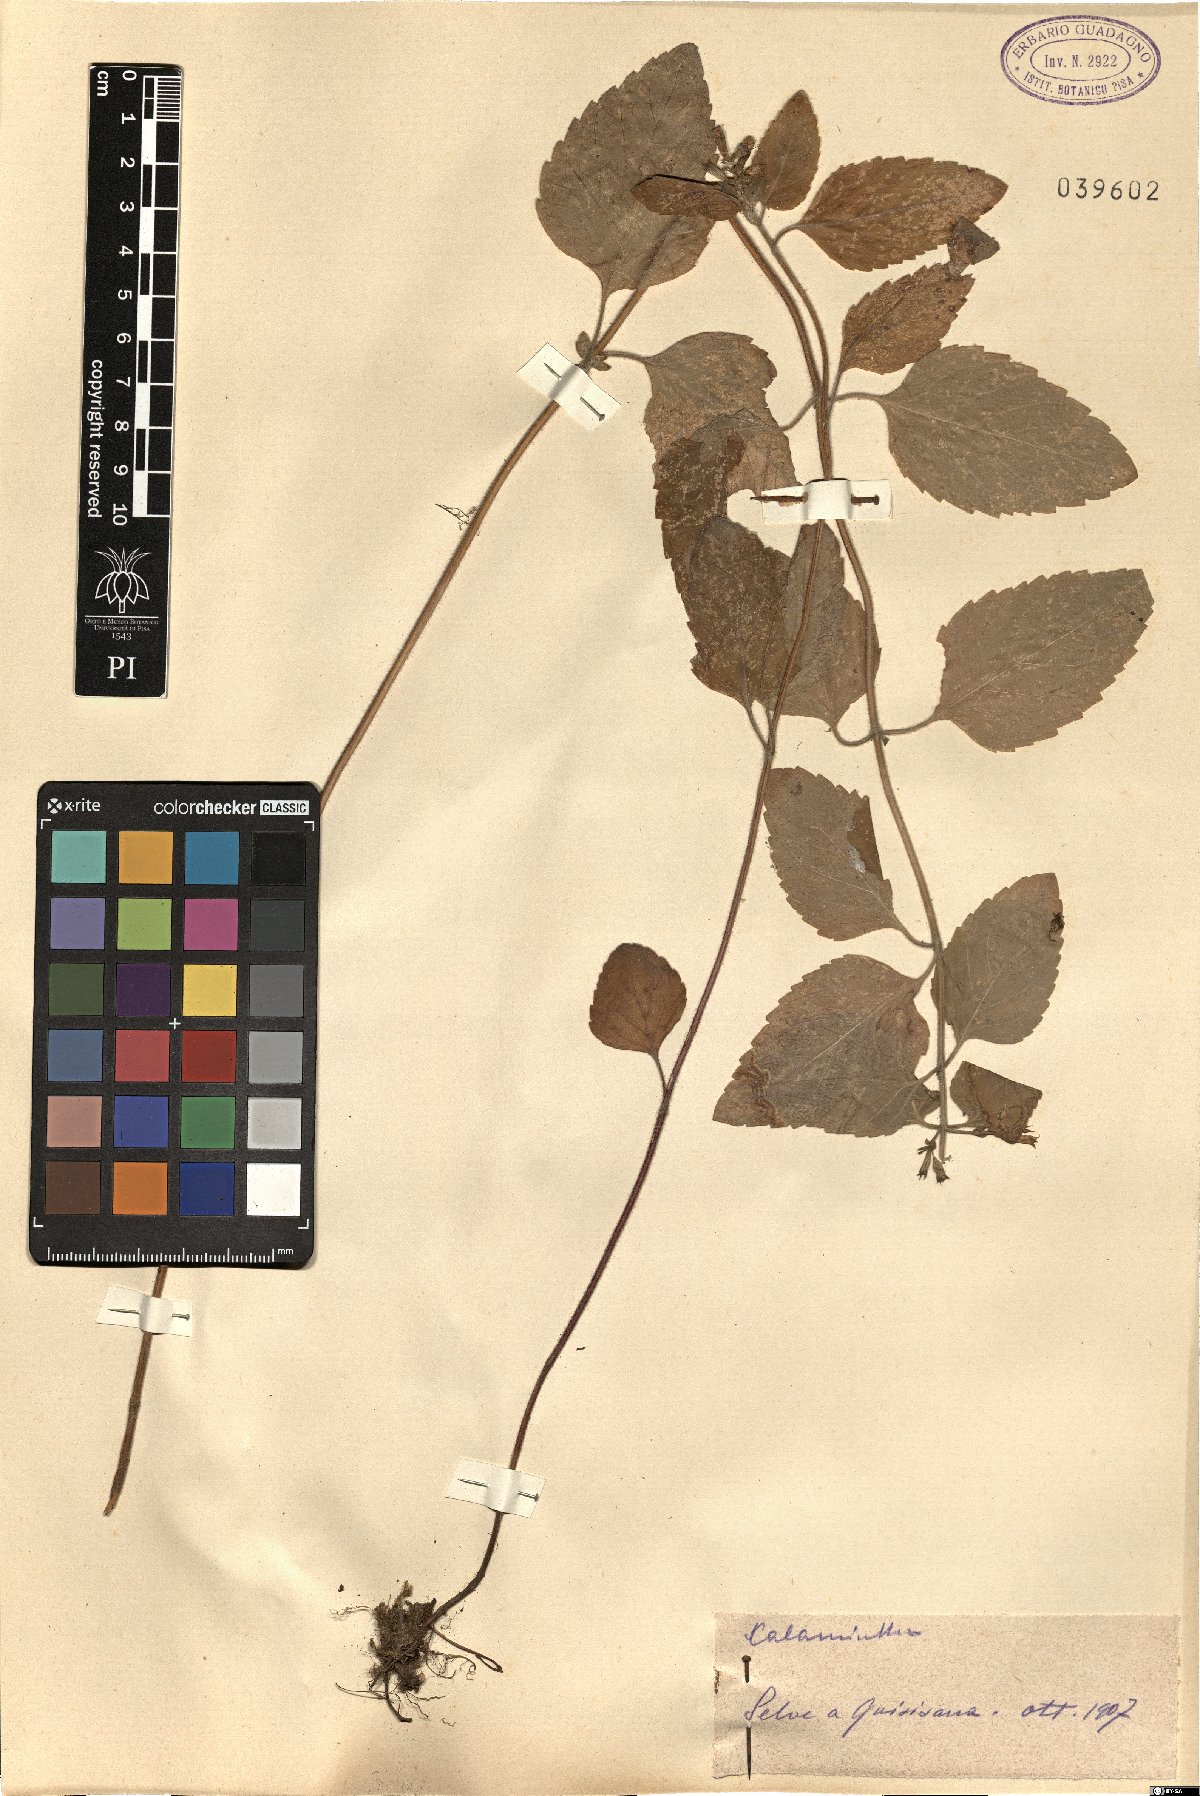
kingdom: Plantae
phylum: Tracheophyta
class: Magnoliopsida
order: Lamiales
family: Lamiaceae
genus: Calamintha
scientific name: Calamintha
